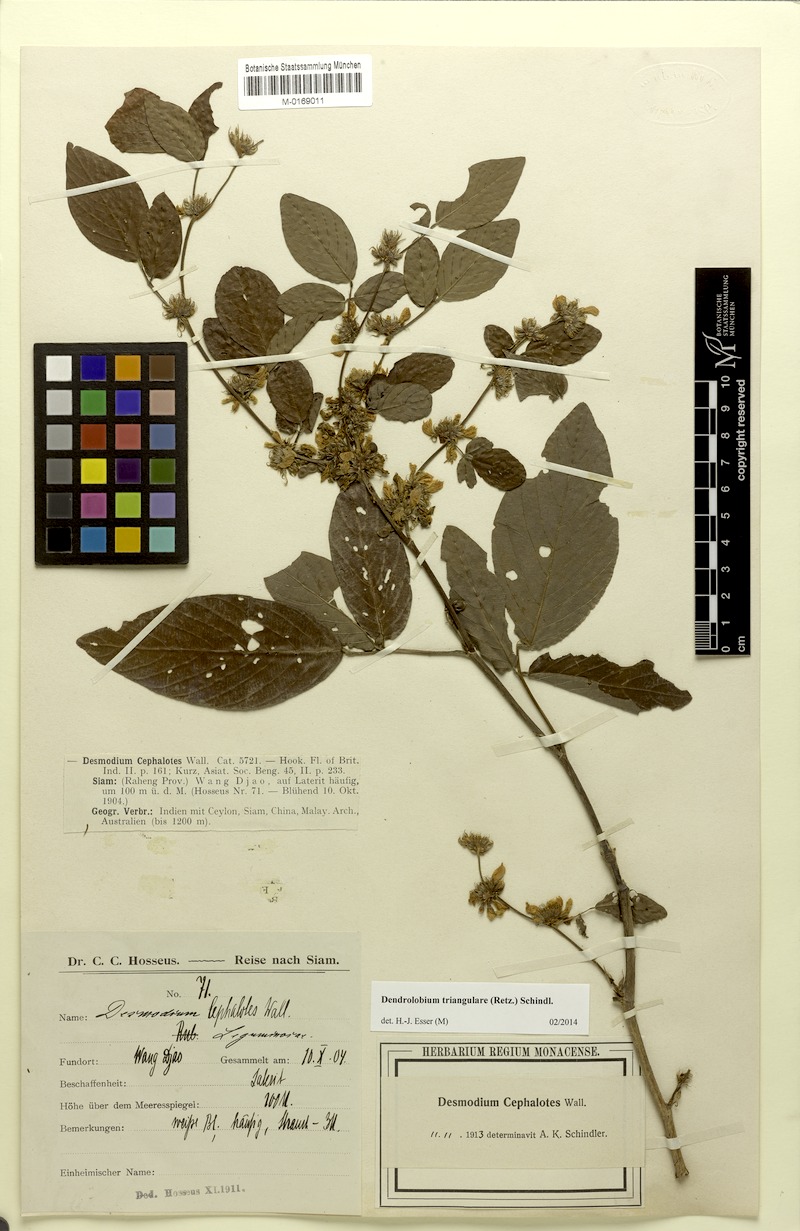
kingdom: Plantae
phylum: Tracheophyta
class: Magnoliopsida
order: Fabales
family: Fabaceae
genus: Dendrolobium
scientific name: Dendrolobium triangulare
